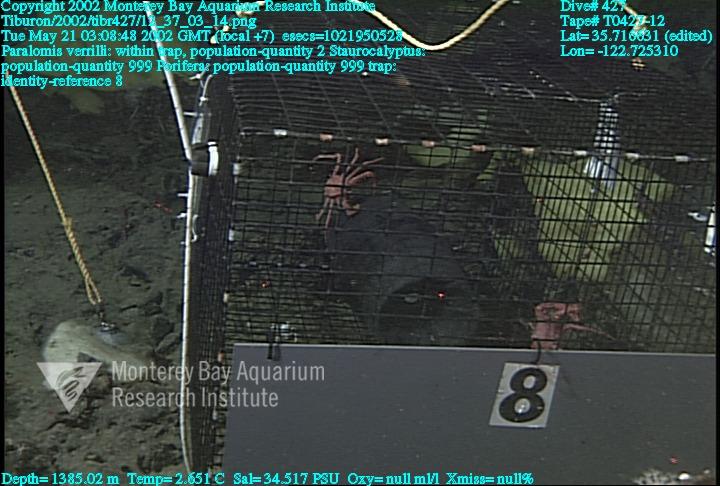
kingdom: Animalia
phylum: Porifera
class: Hexactinellida
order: Lyssacinosida
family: Rossellidae
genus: Staurocalyptus
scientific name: Staurocalyptus
